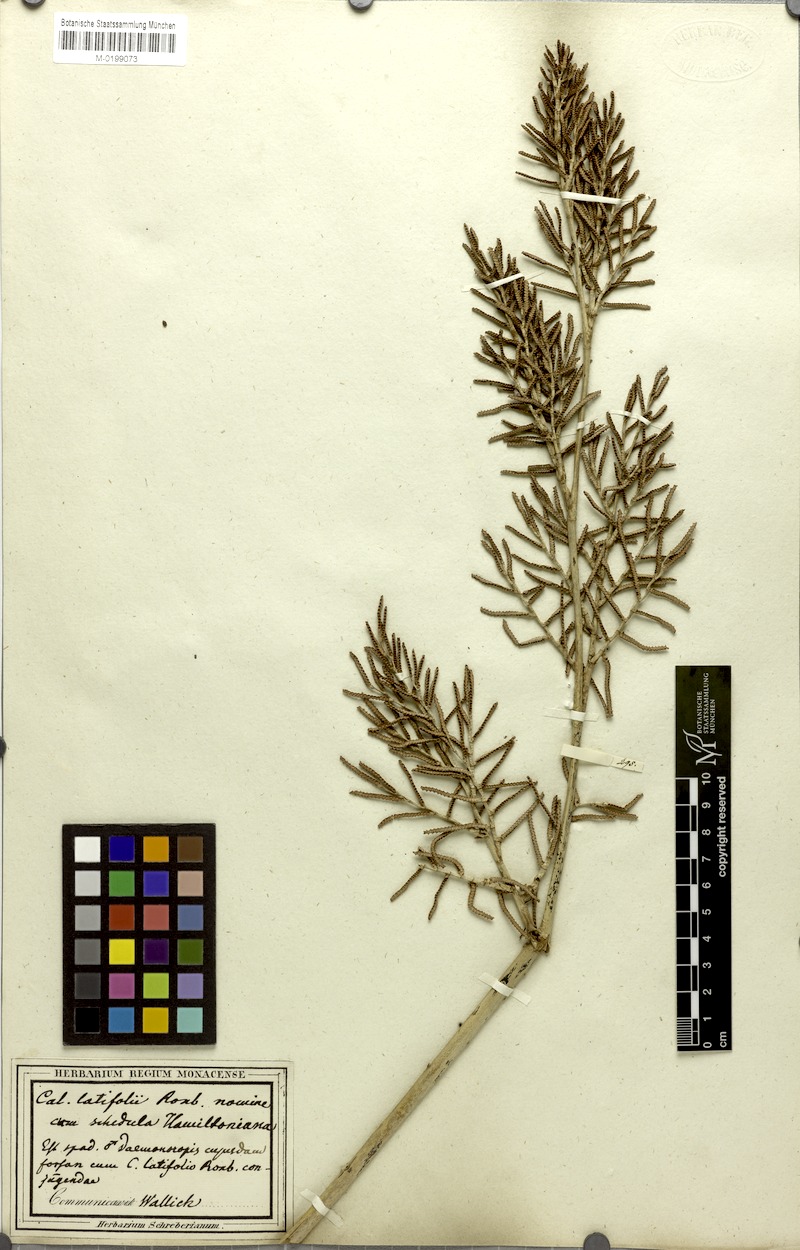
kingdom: Plantae
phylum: Tracheophyta
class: Liliopsida
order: Arecales
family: Arecaceae
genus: Calamus
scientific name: Calamus latifolius
